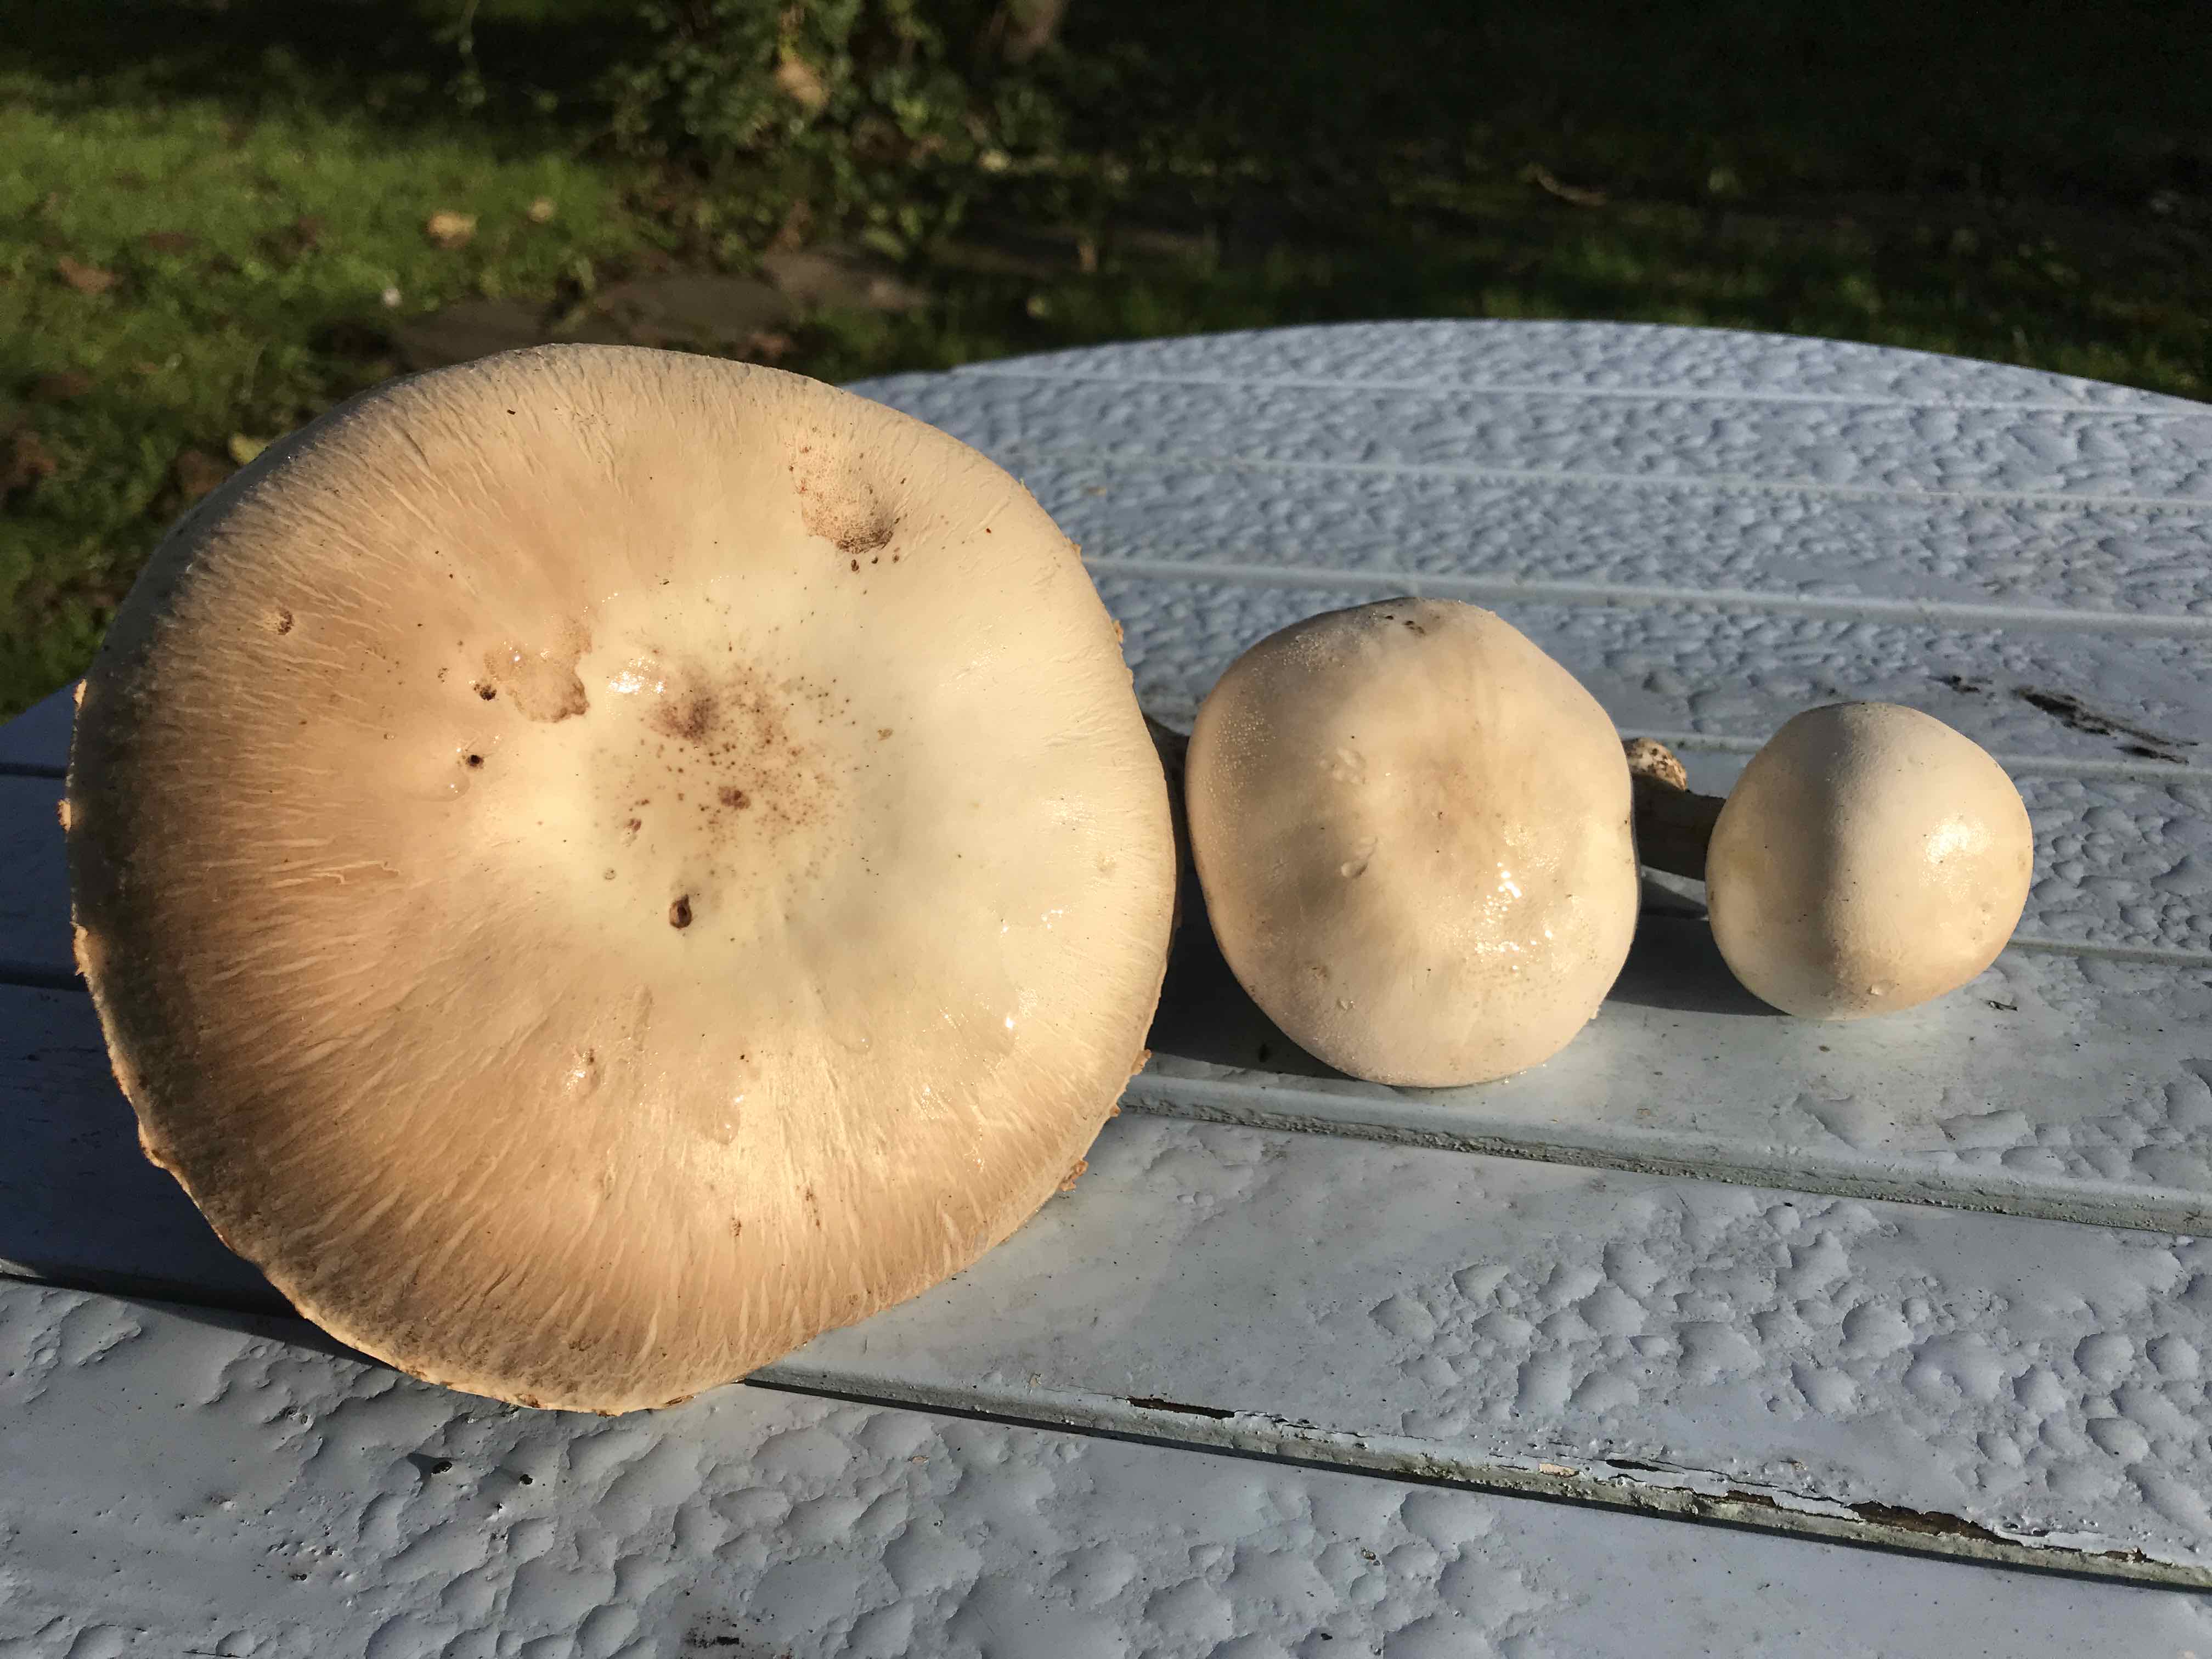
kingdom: Fungi
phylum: Basidiomycota
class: Agaricomycetes
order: Agaricales
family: Agaricaceae
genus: Agaricus
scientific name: Agaricus
